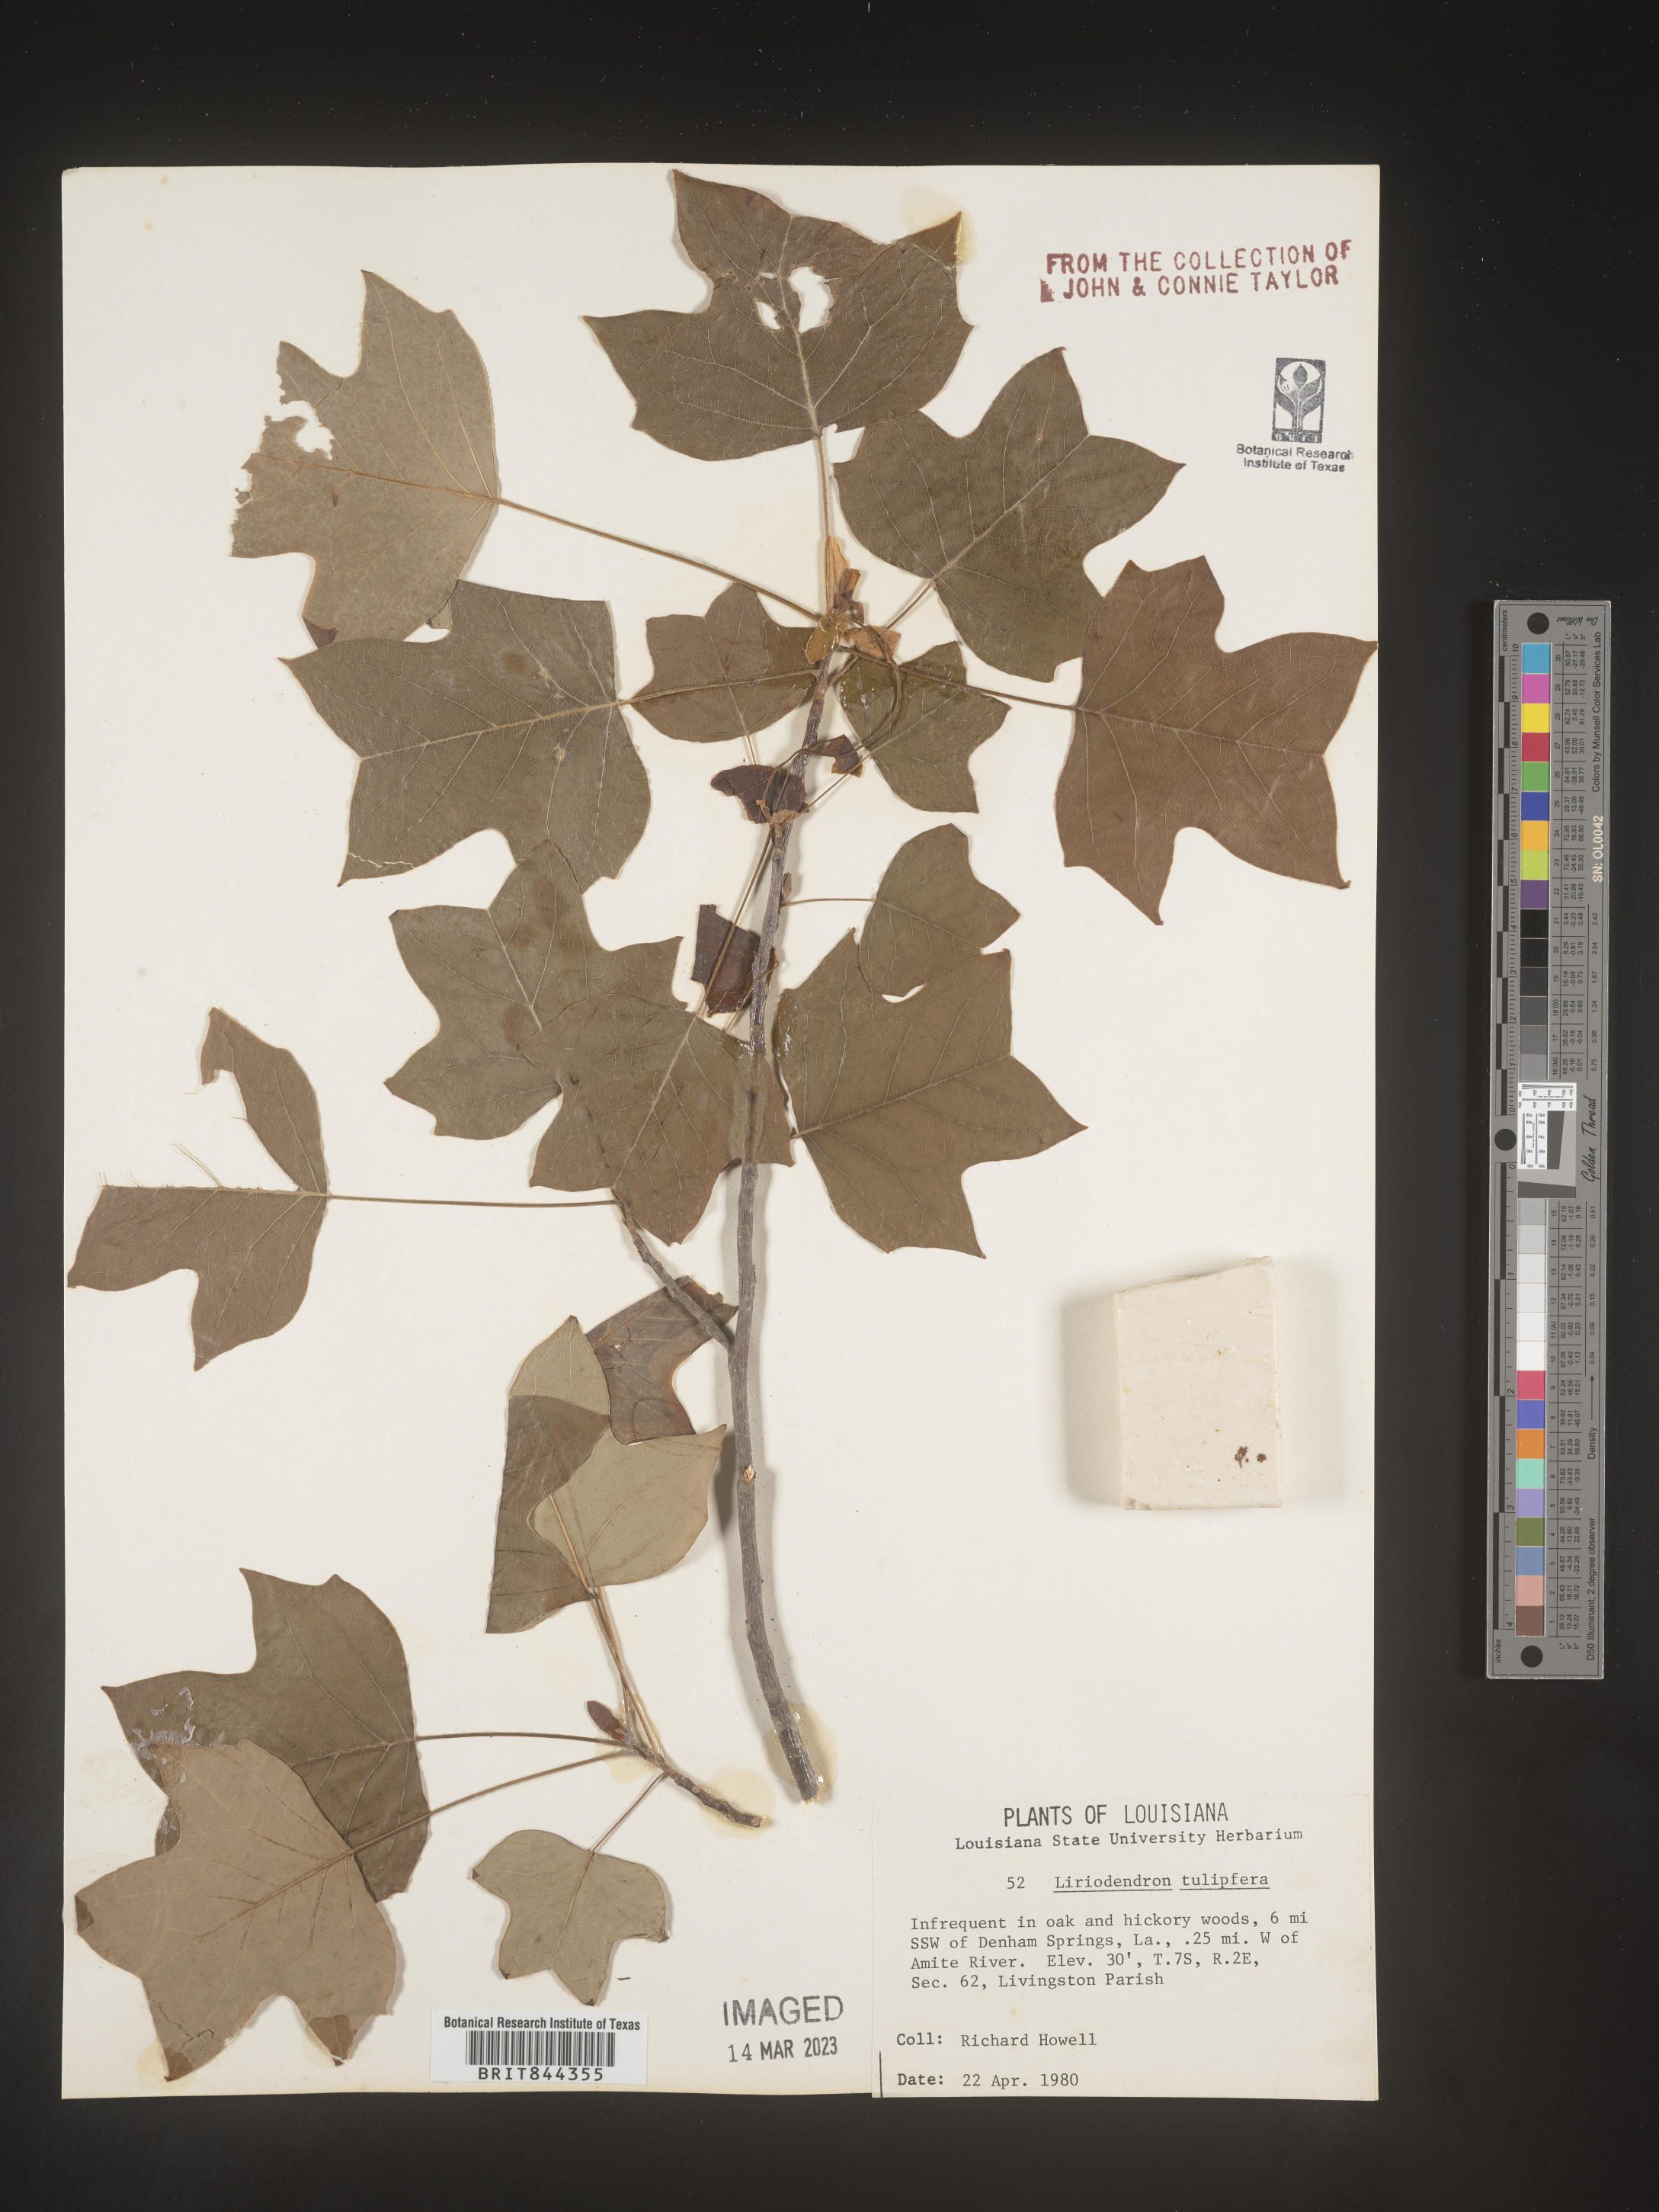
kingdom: Plantae
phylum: Tracheophyta
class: Magnoliopsida
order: Magnoliales
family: Magnoliaceae
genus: Liriodendron
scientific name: Liriodendron tulipifera
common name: Tulip tree
